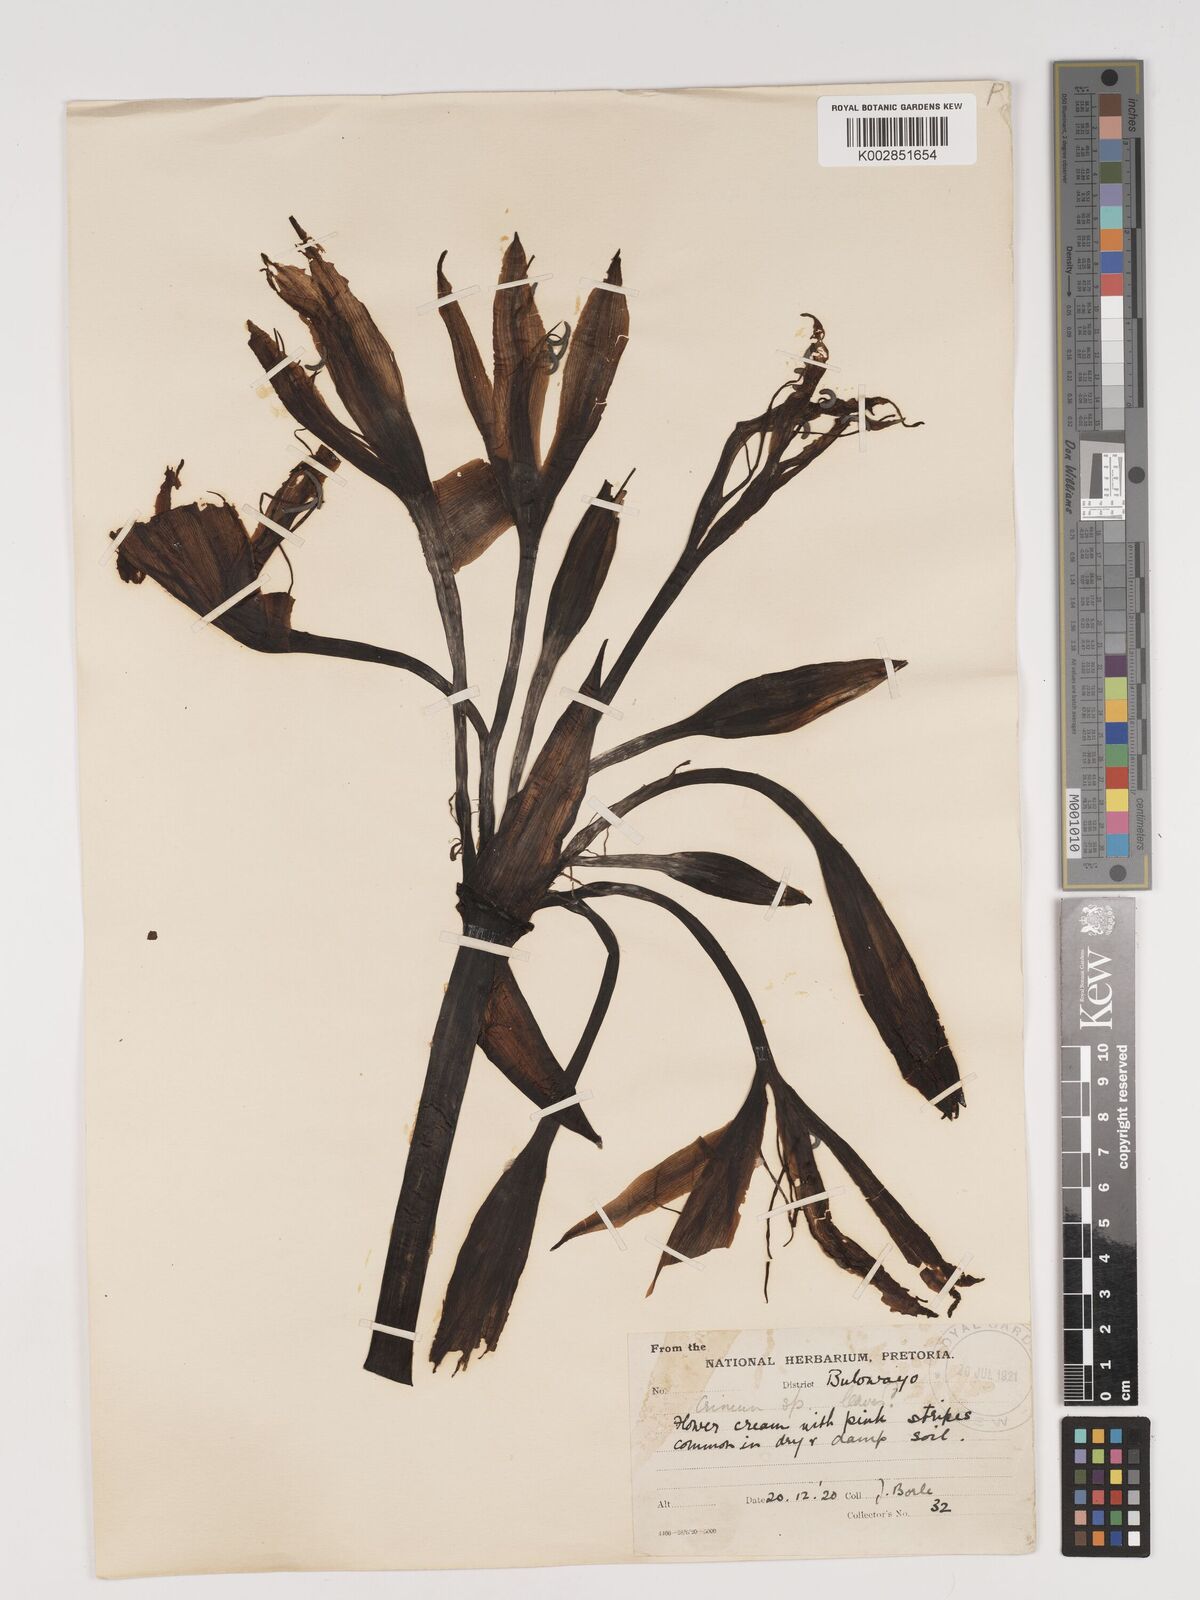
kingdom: Plantae
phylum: Tracheophyta
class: Liliopsida
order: Asparagales
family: Amaryllidaceae
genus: Crinum
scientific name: Crinum graminicola
